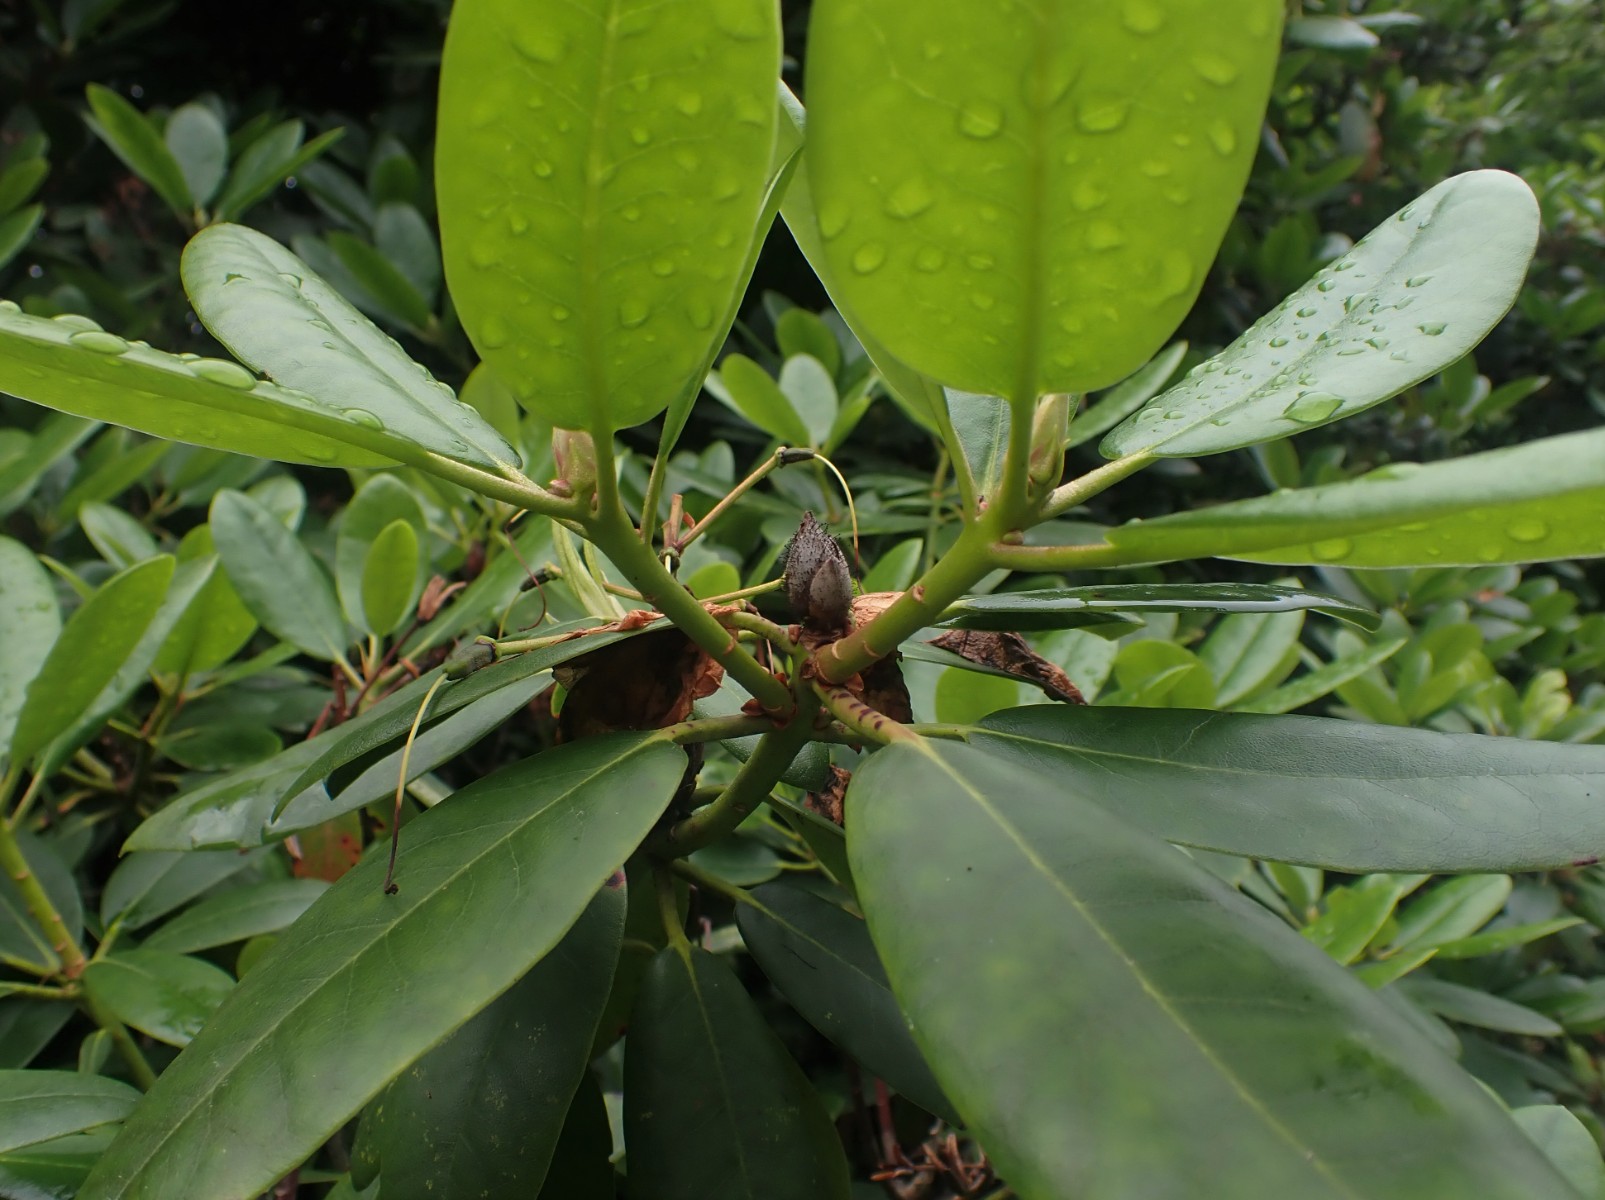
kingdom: Fungi
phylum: Ascomycota
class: Dothideomycetes
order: Pleosporales
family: Melanommataceae
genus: Seifertia
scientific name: Seifertia azaleae
